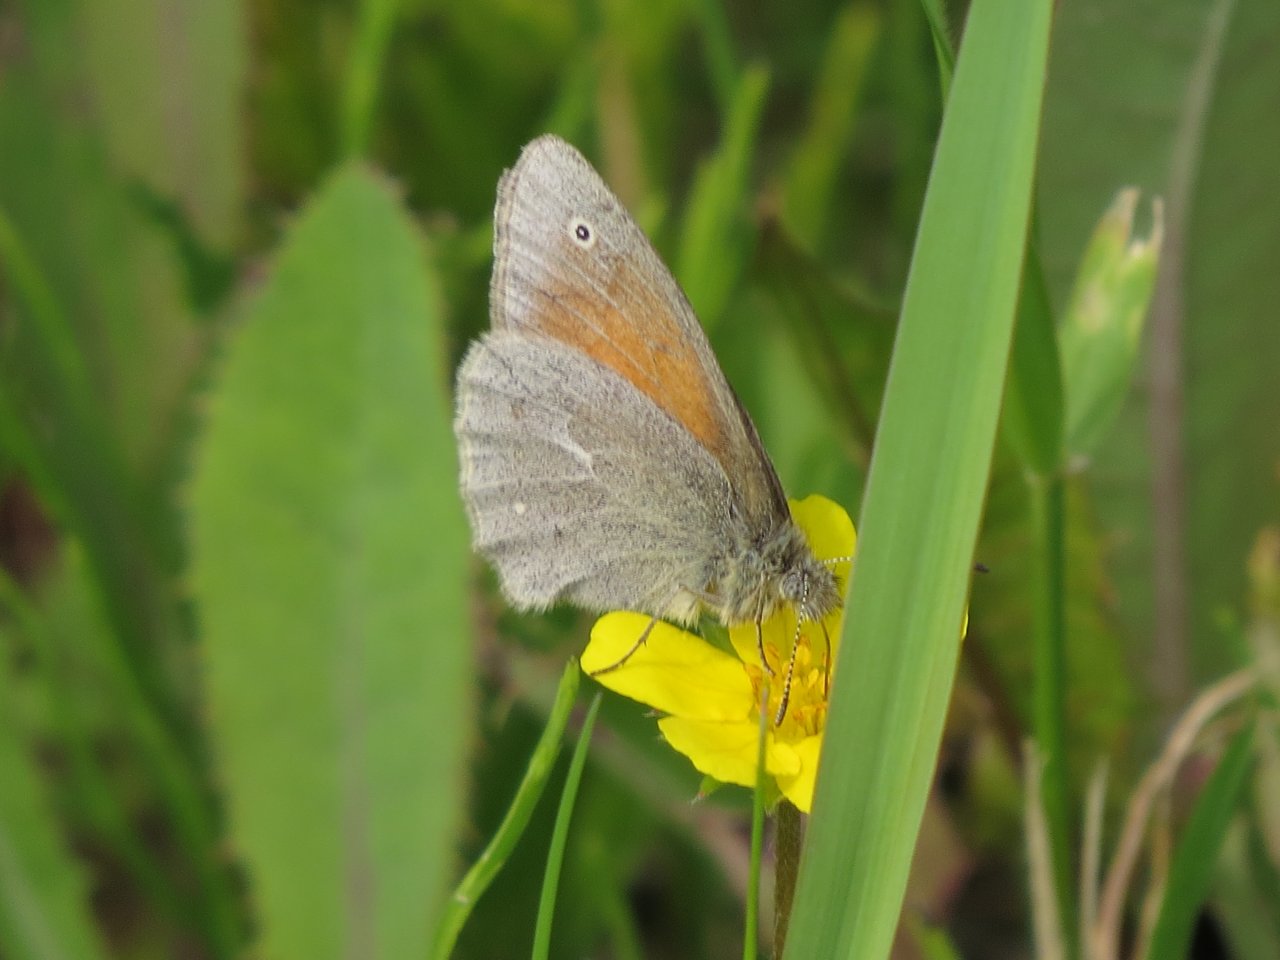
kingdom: Animalia
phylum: Arthropoda
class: Insecta
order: Lepidoptera
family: Nymphalidae
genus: Coenonympha
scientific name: Coenonympha tullia
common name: Large Heath
